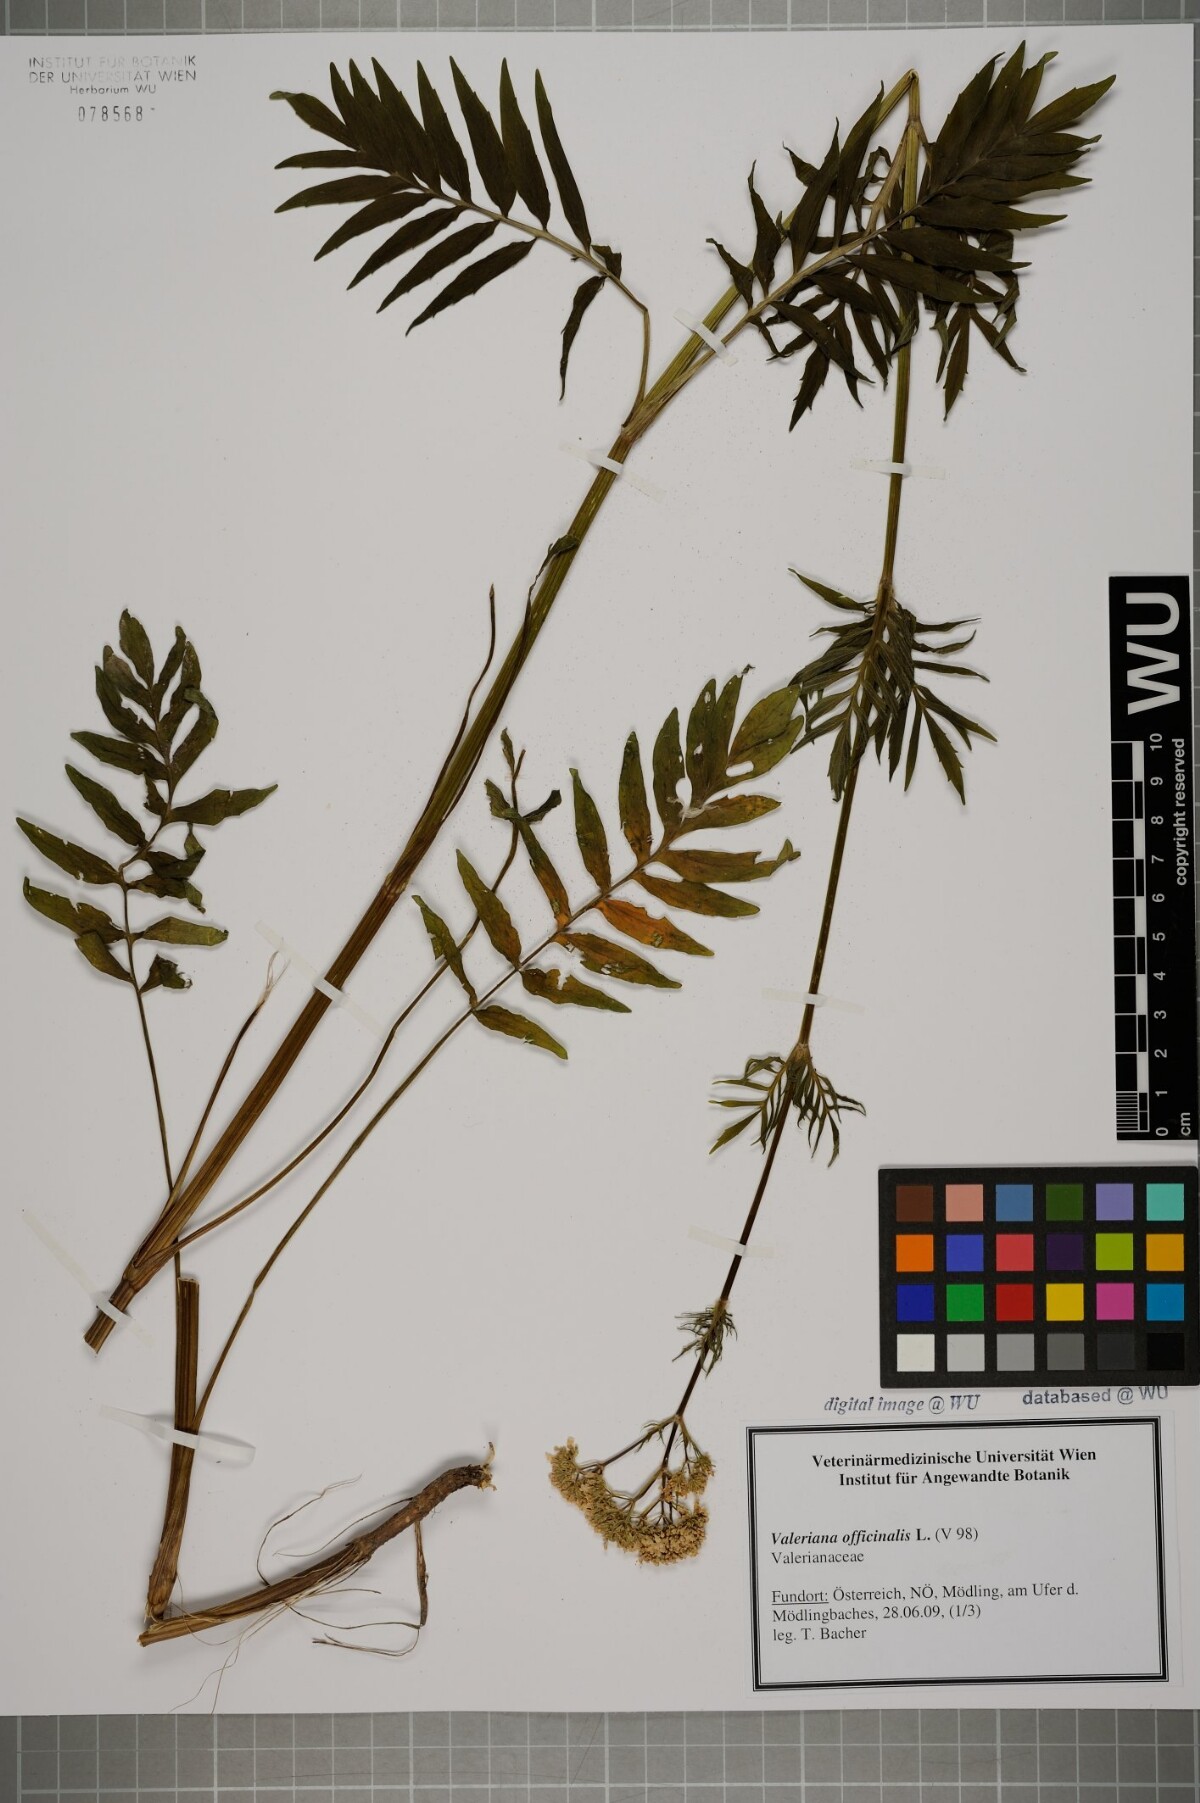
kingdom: Plantae
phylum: Tracheophyta
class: Magnoliopsida
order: Dipsacales
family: Caprifoliaceae
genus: Valeriana
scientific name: Valeriana officinalis
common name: Common valerian
